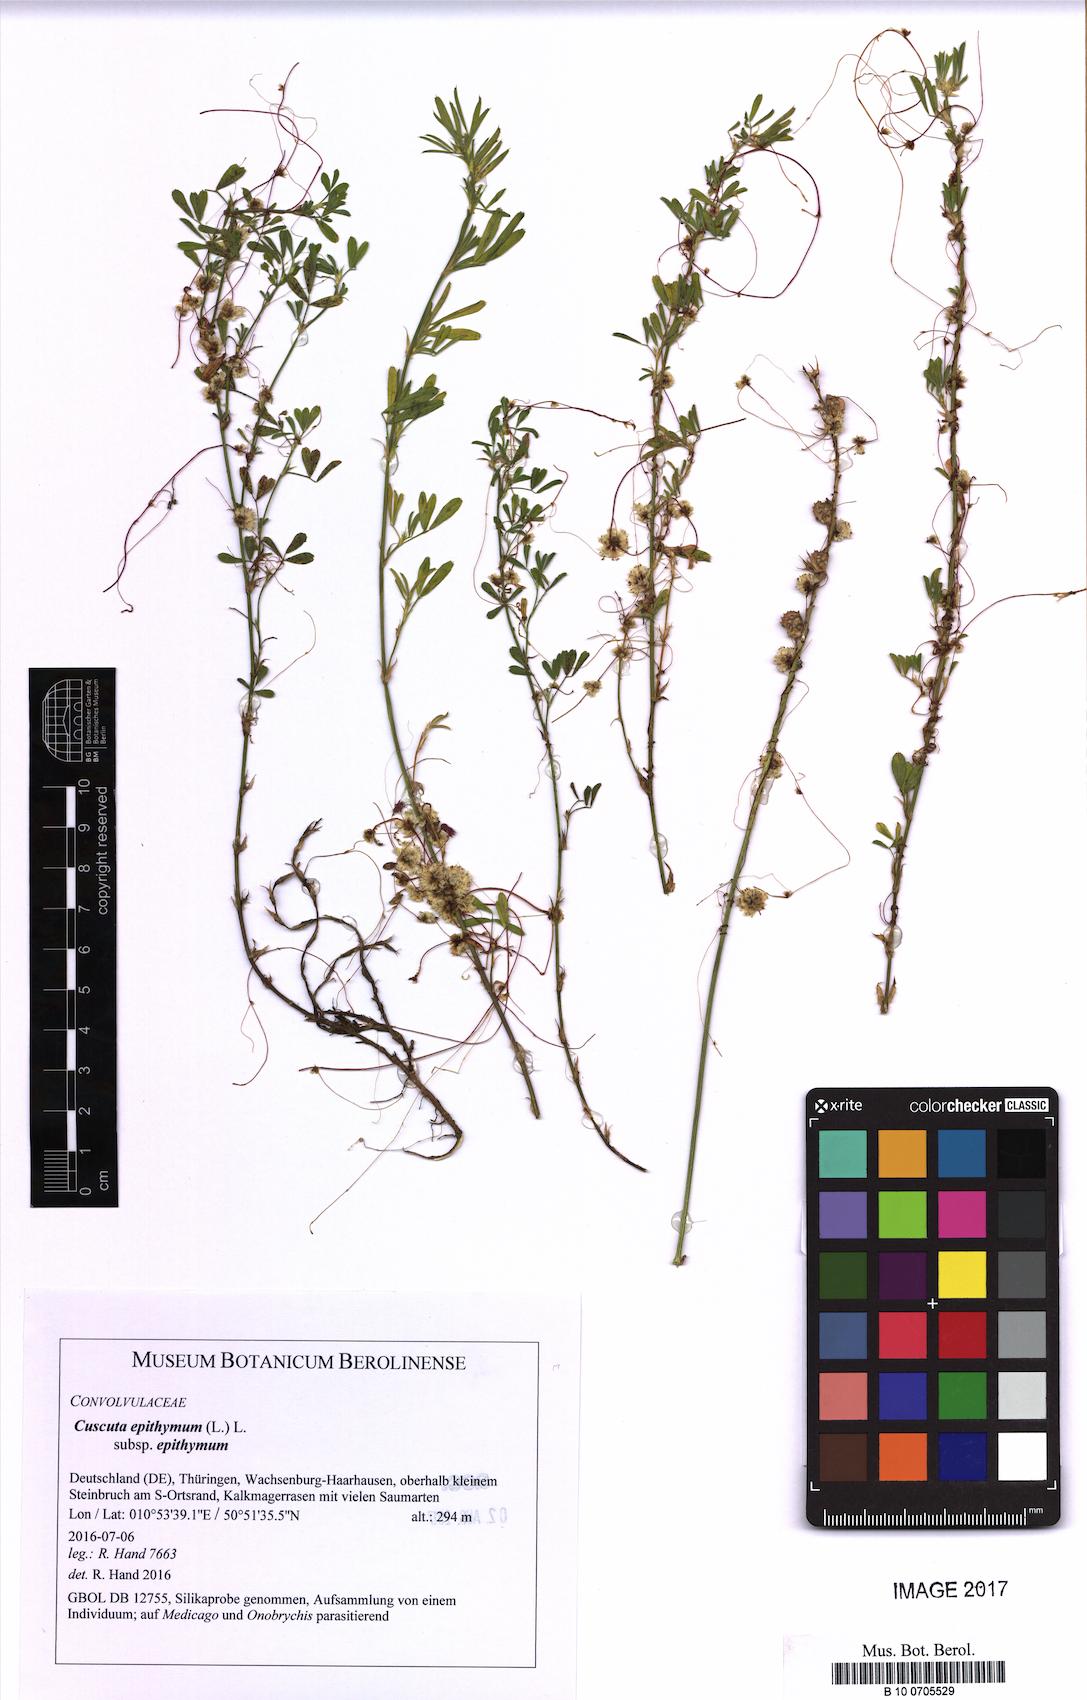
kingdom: Plantae
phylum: Tracheophyta
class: Magnoliopsida
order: Solanales
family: Convolvulaceae
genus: Cuscuta
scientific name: Cuscuta epithymum
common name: Clover dodder
